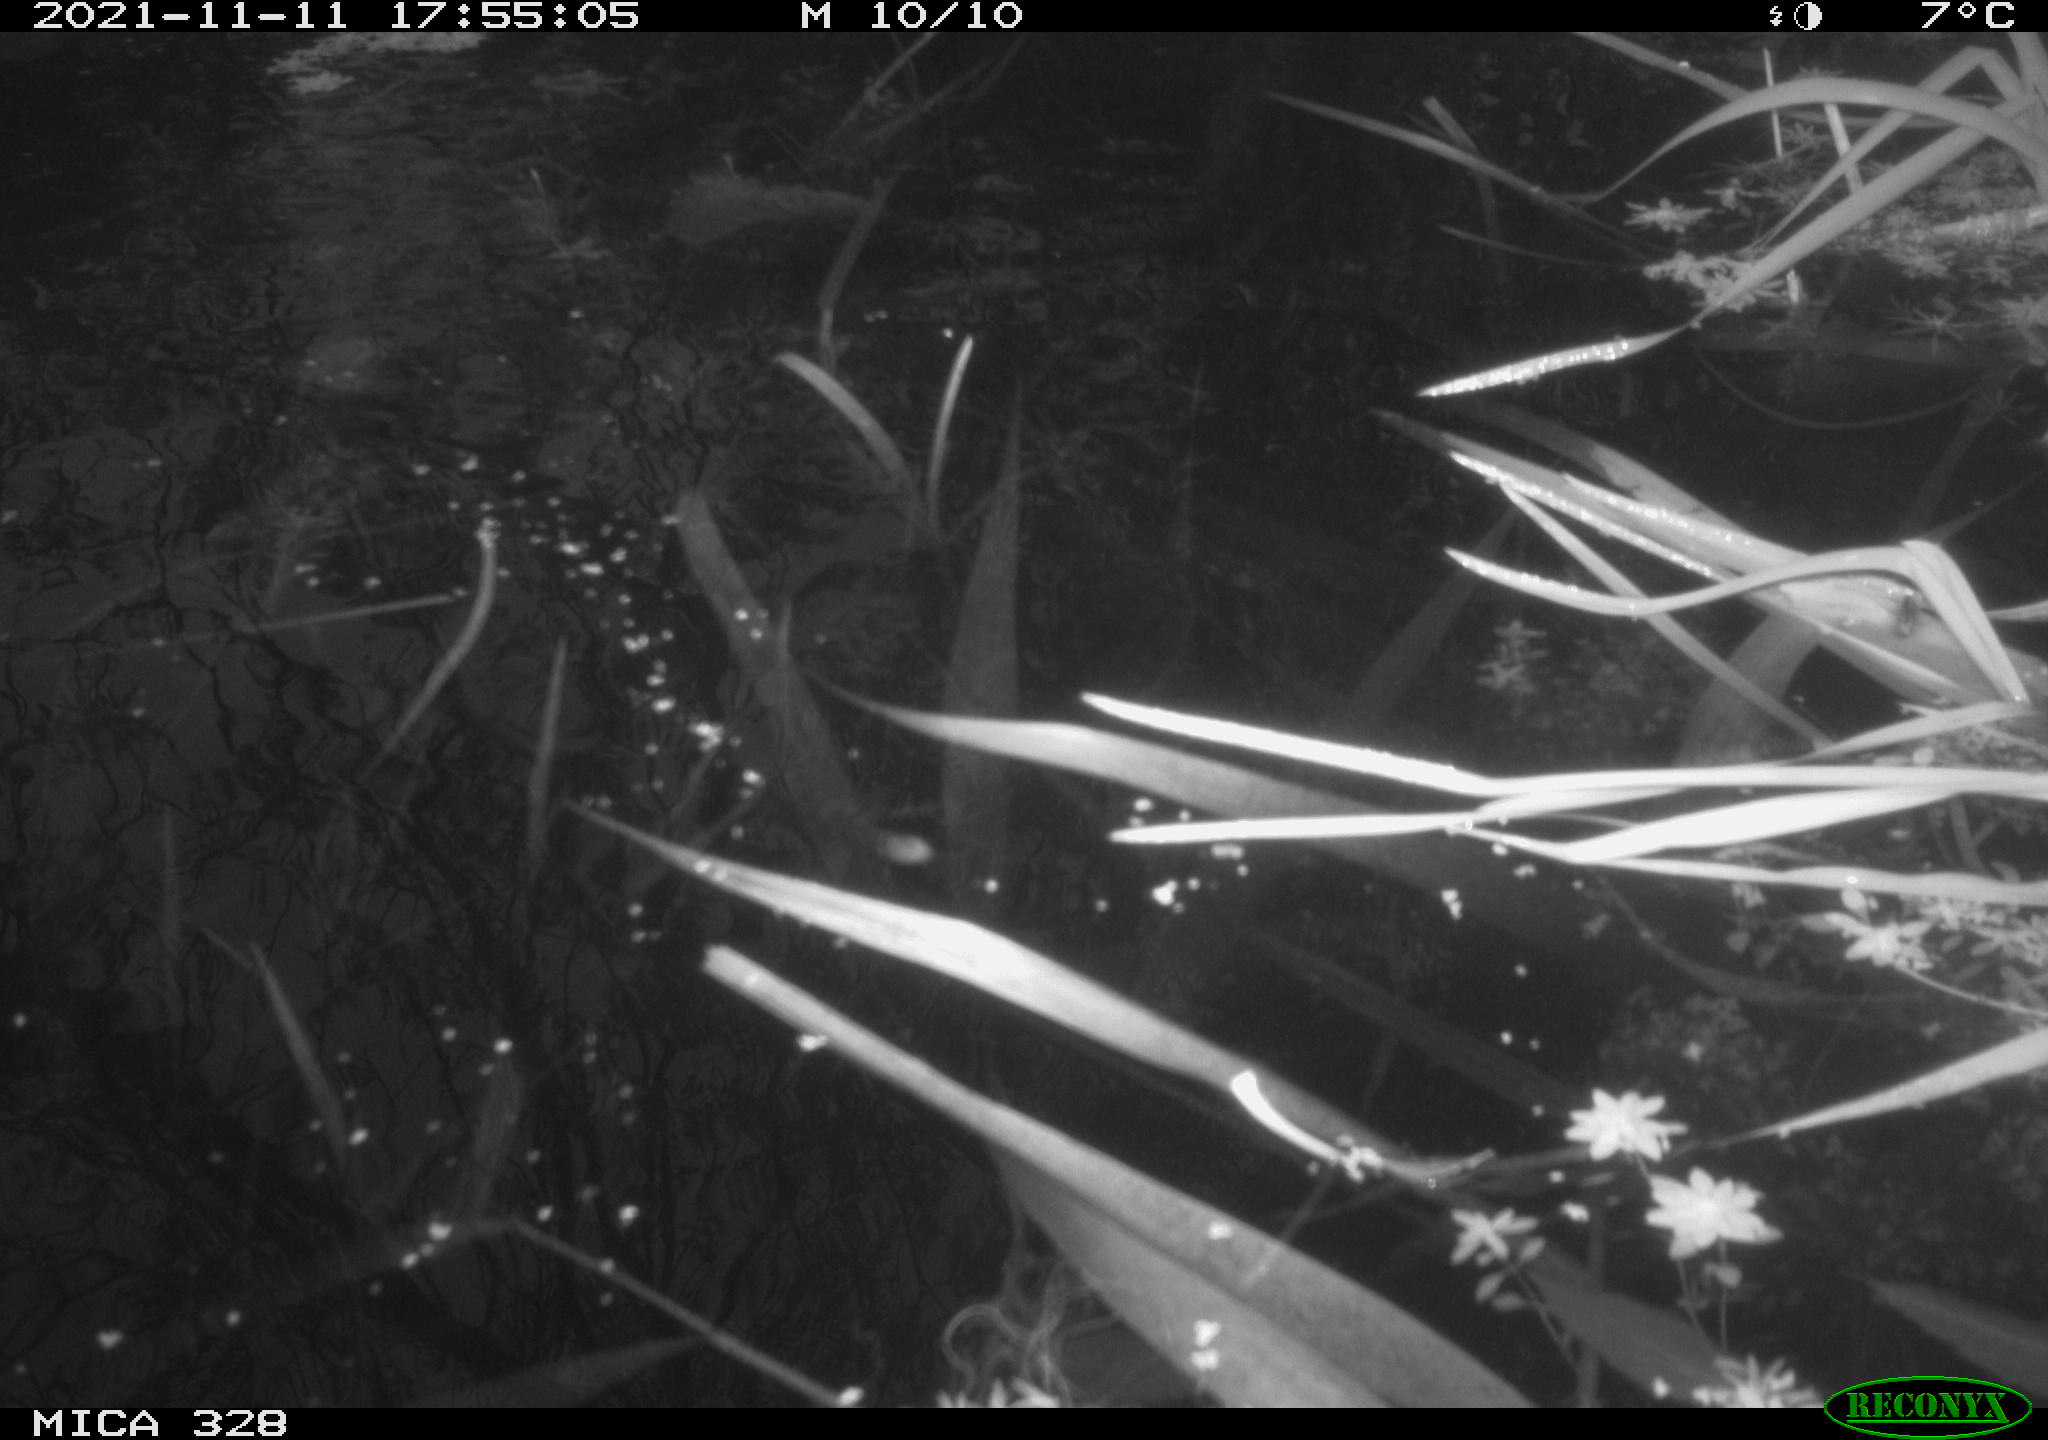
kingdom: Animalia
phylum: Chordata
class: Aves
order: Gruiformes
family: Rallidae
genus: Gallinula
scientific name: Gallinula chloropus
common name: Common moorhen
